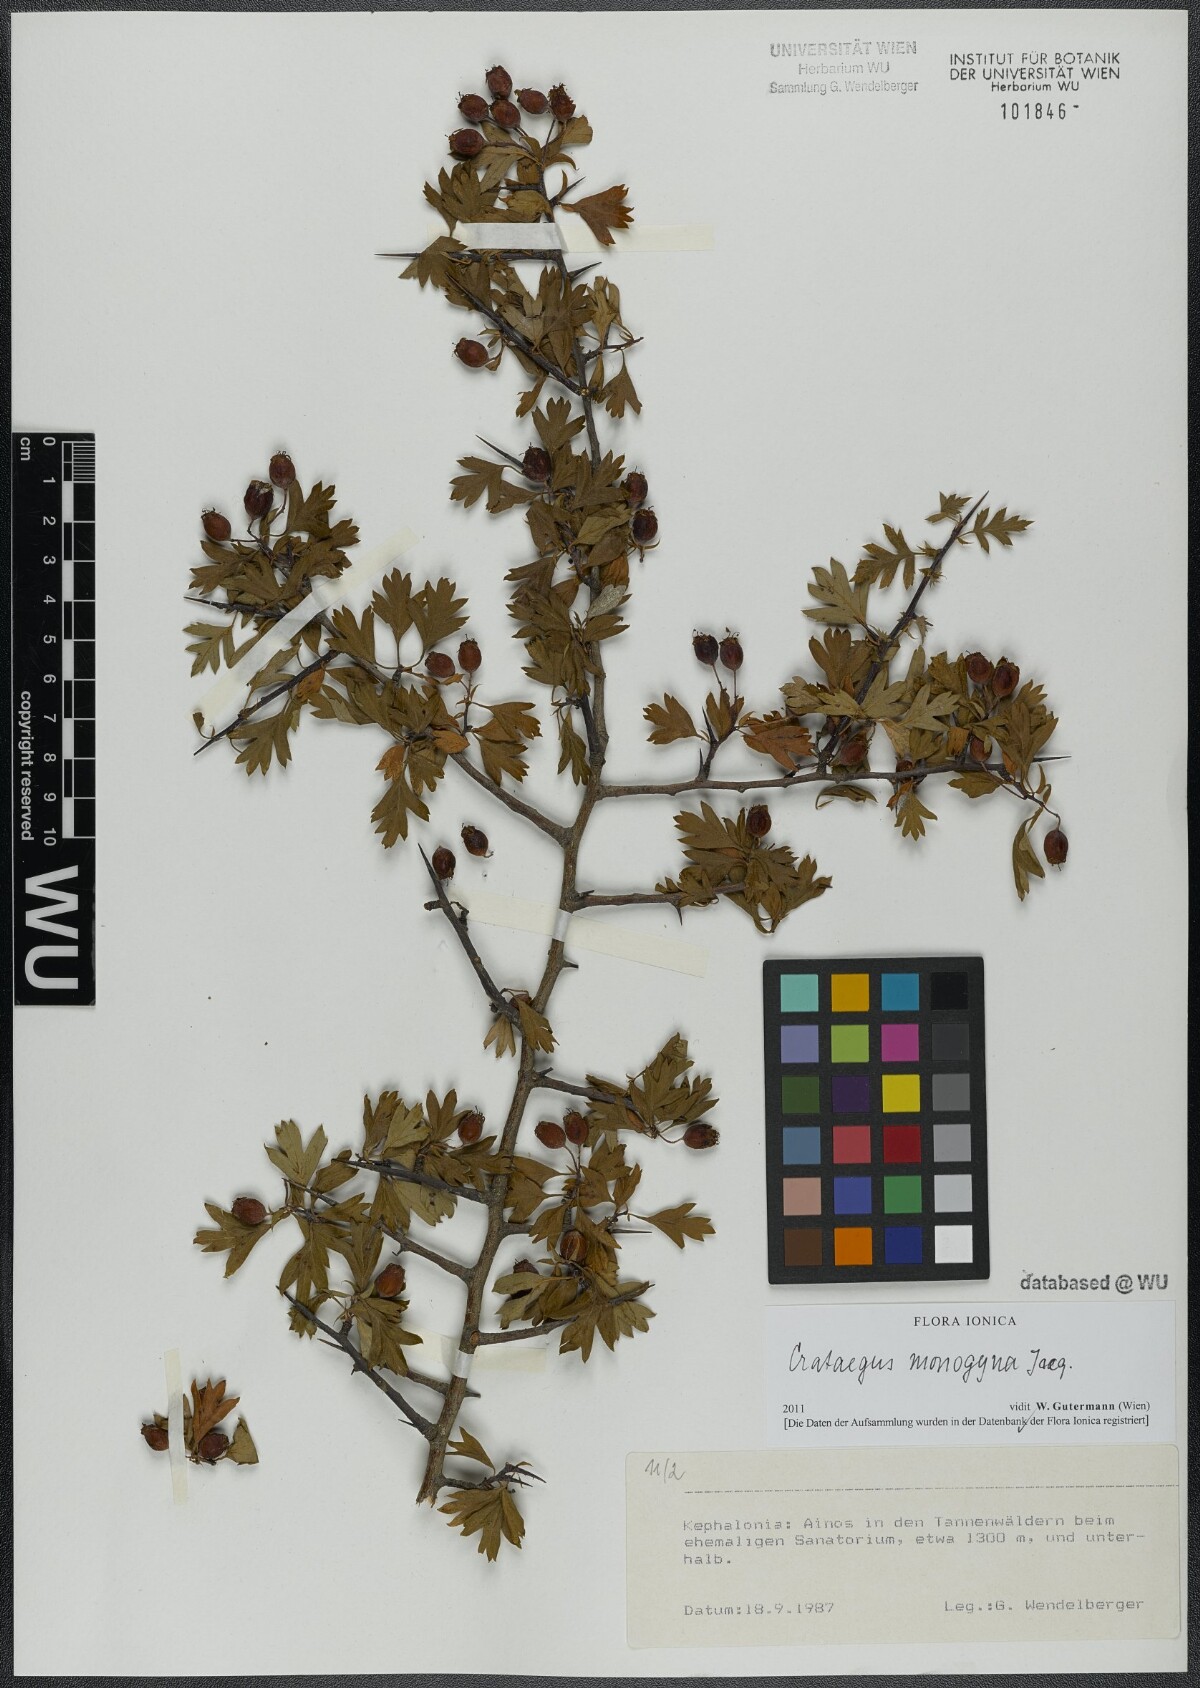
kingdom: Plantae
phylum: Tracheophyta
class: Magnoliopsida
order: Rosales
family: Rosaceae
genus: Crataegus
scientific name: Crataegus monogyna
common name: Hawthorn
